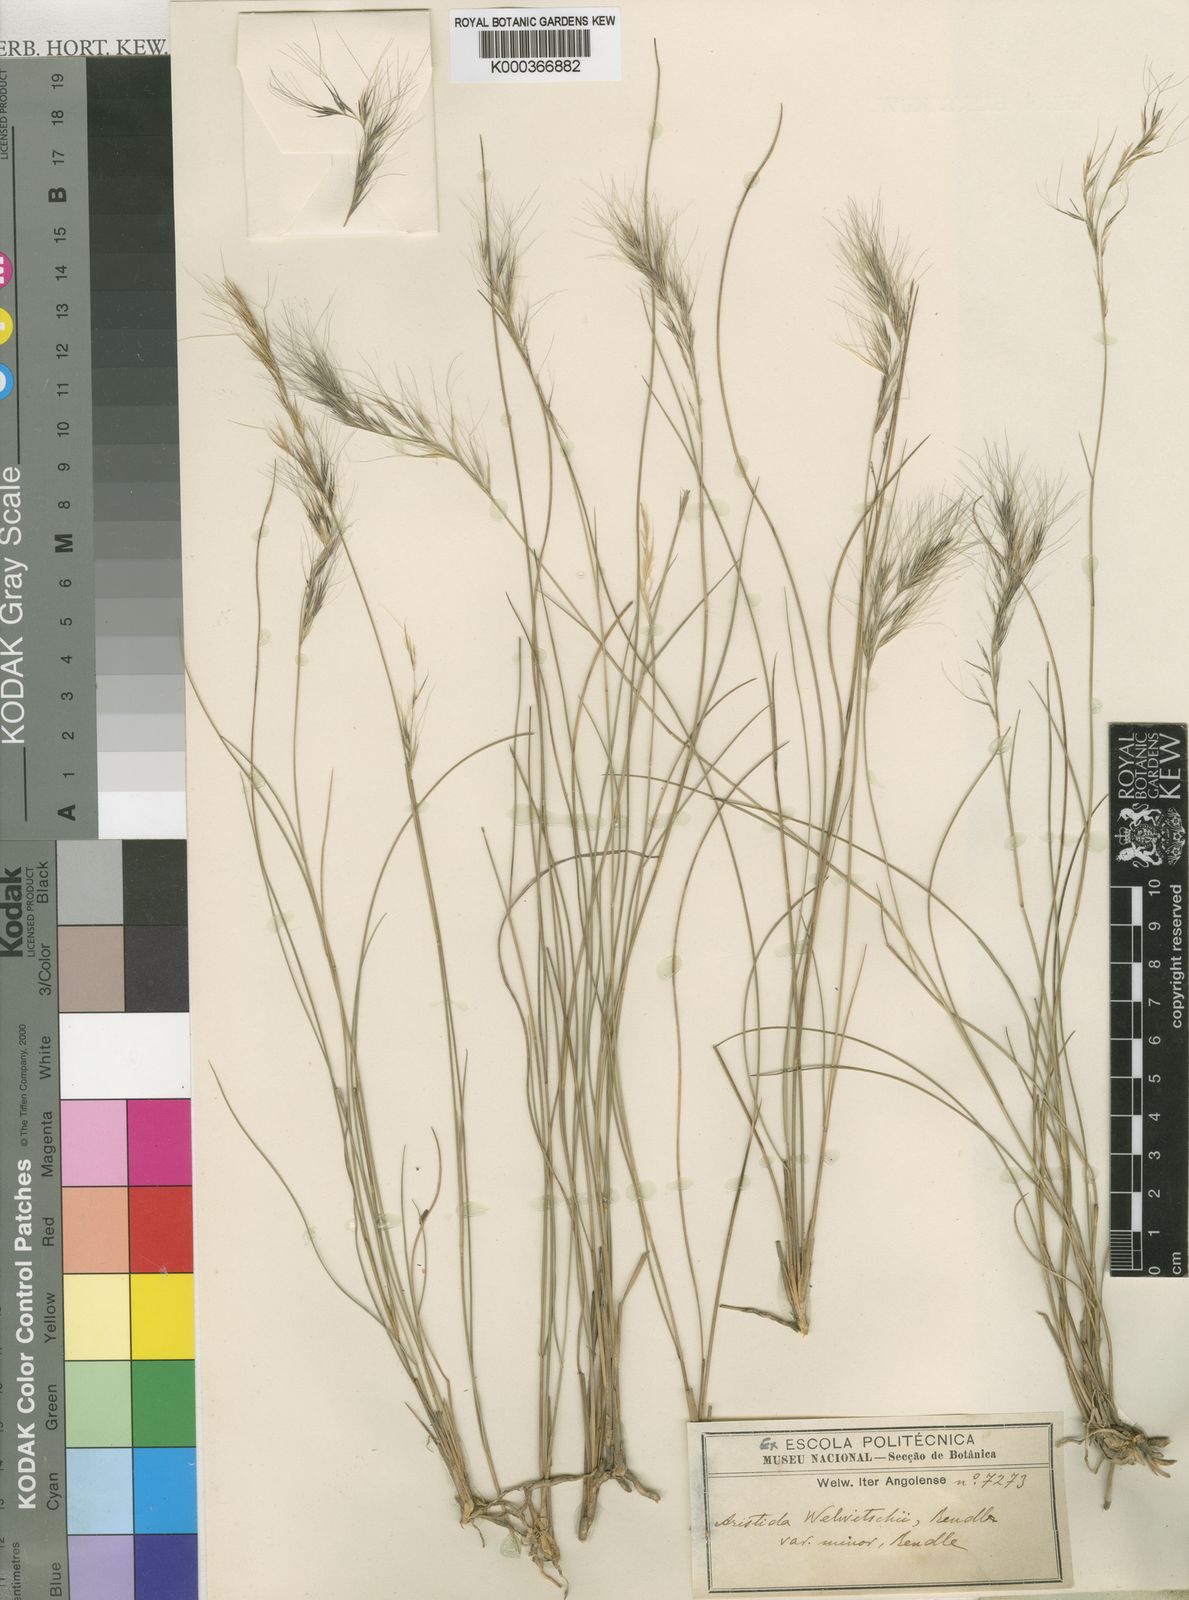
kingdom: Plantae
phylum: Tracheophyta
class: Liliopsida
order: Poales
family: Poaceae
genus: Aristida
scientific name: Aristida junciformis
